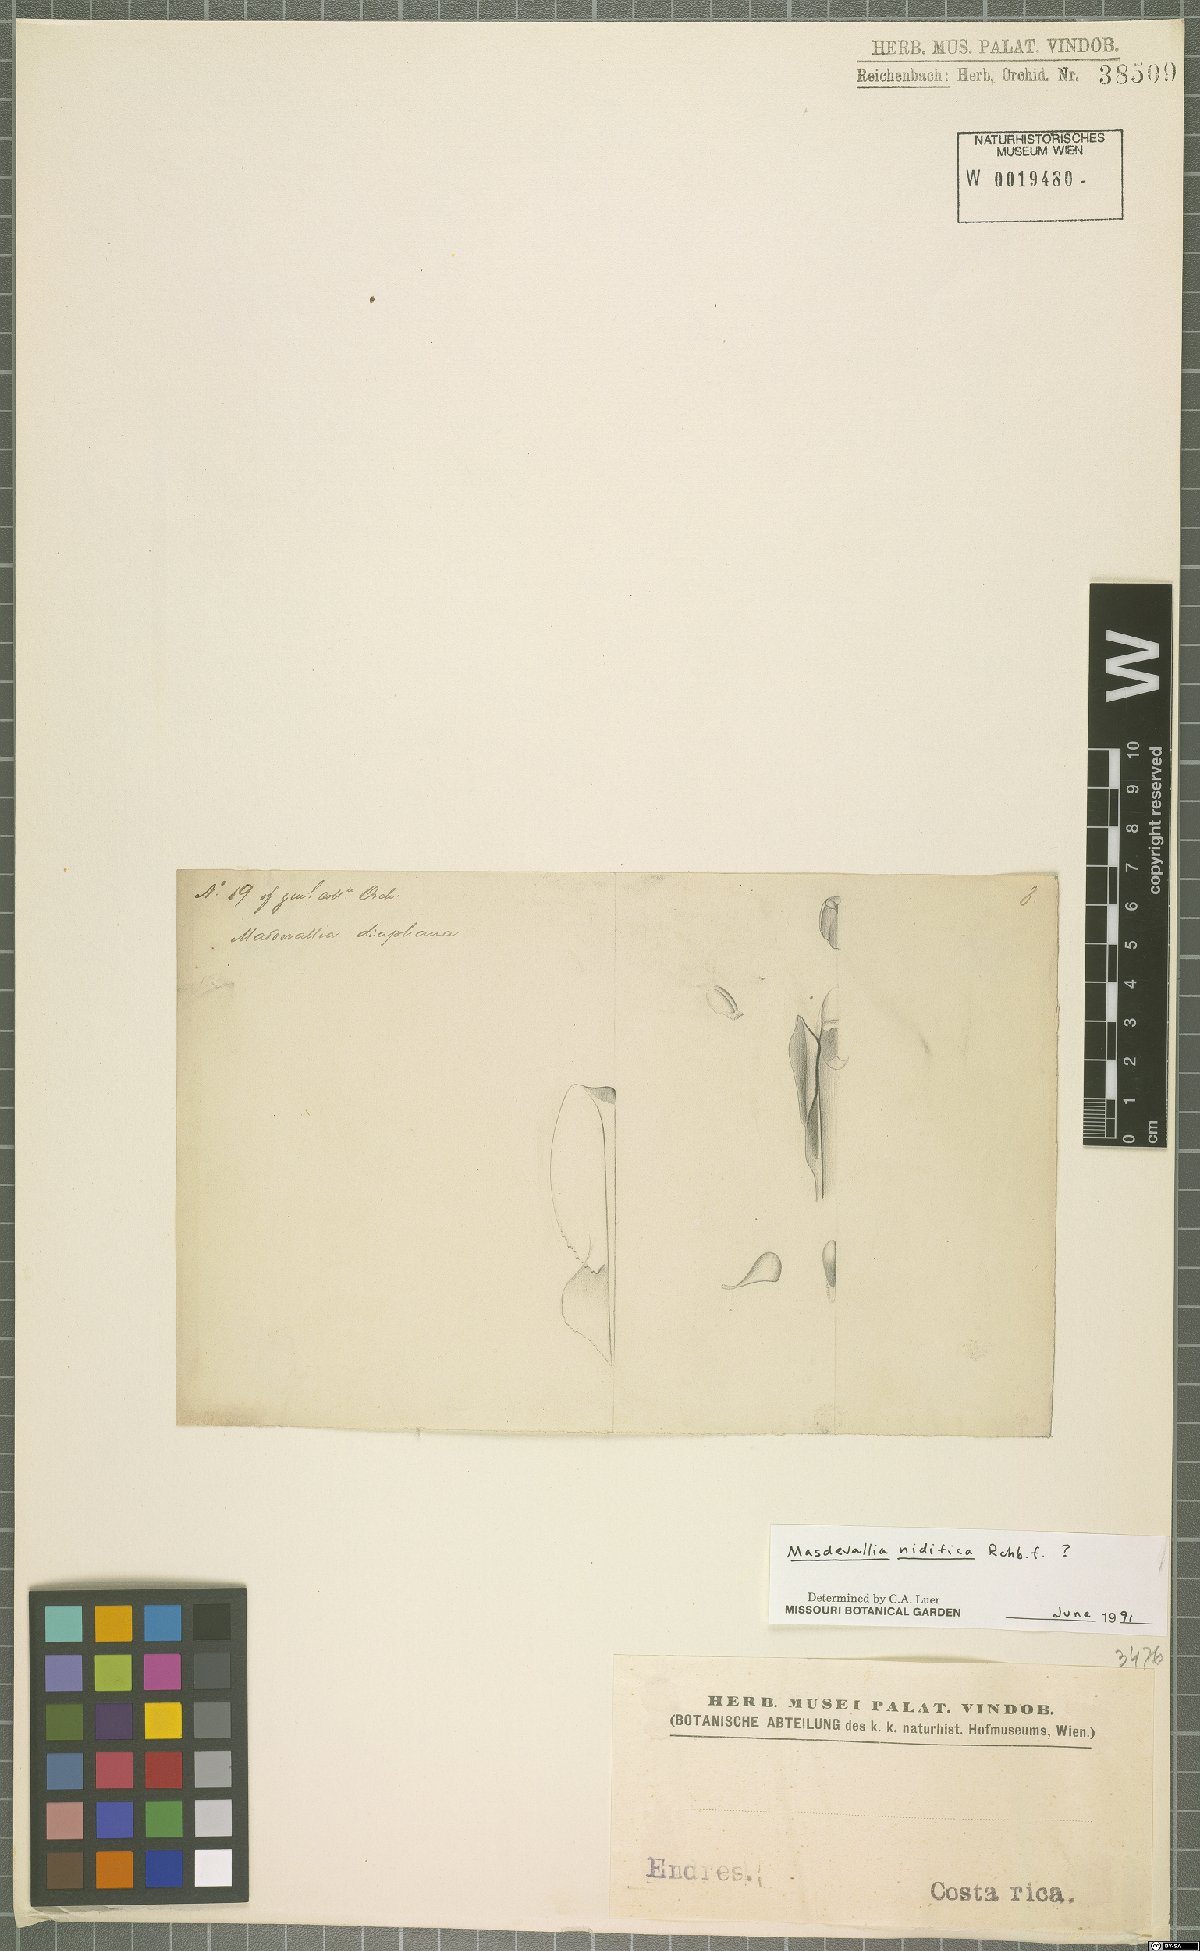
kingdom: Plantae
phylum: Tracheophyta
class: Liliopsida
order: Asparagales
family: Orchidaceae
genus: Masdevallia
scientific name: Masdevallia nidifica
